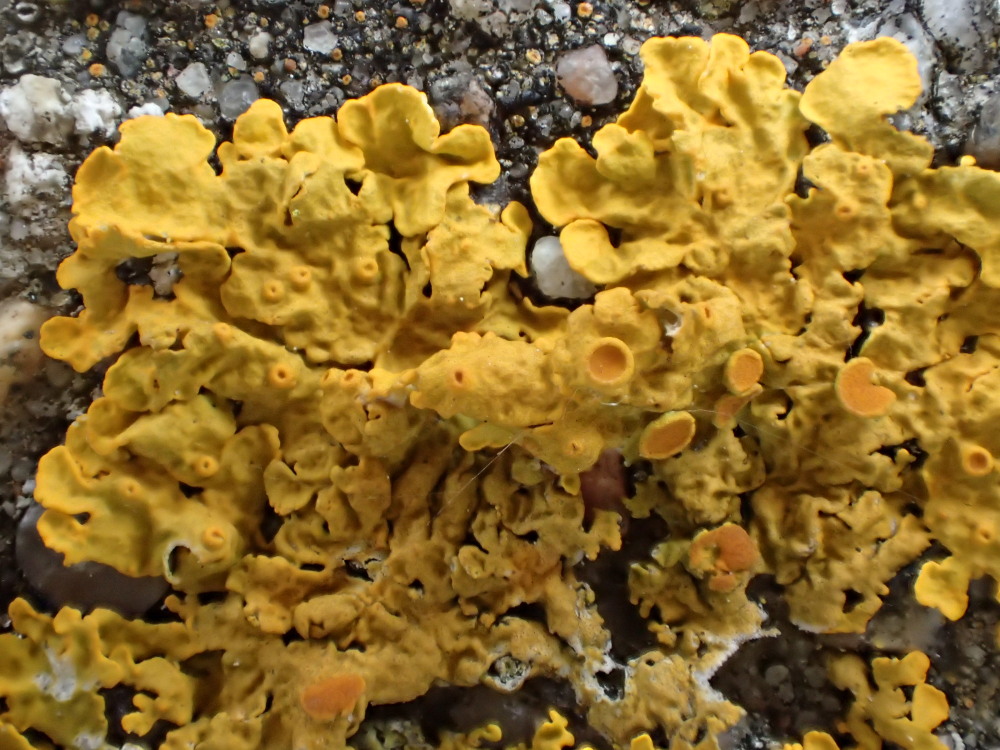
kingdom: Fungi
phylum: Ascomycota
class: Lecanoromycetes
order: Teloschistales
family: Teloschistaceae
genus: Xanthoria
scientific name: Xanthoria parietina
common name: almindelig væggelav
